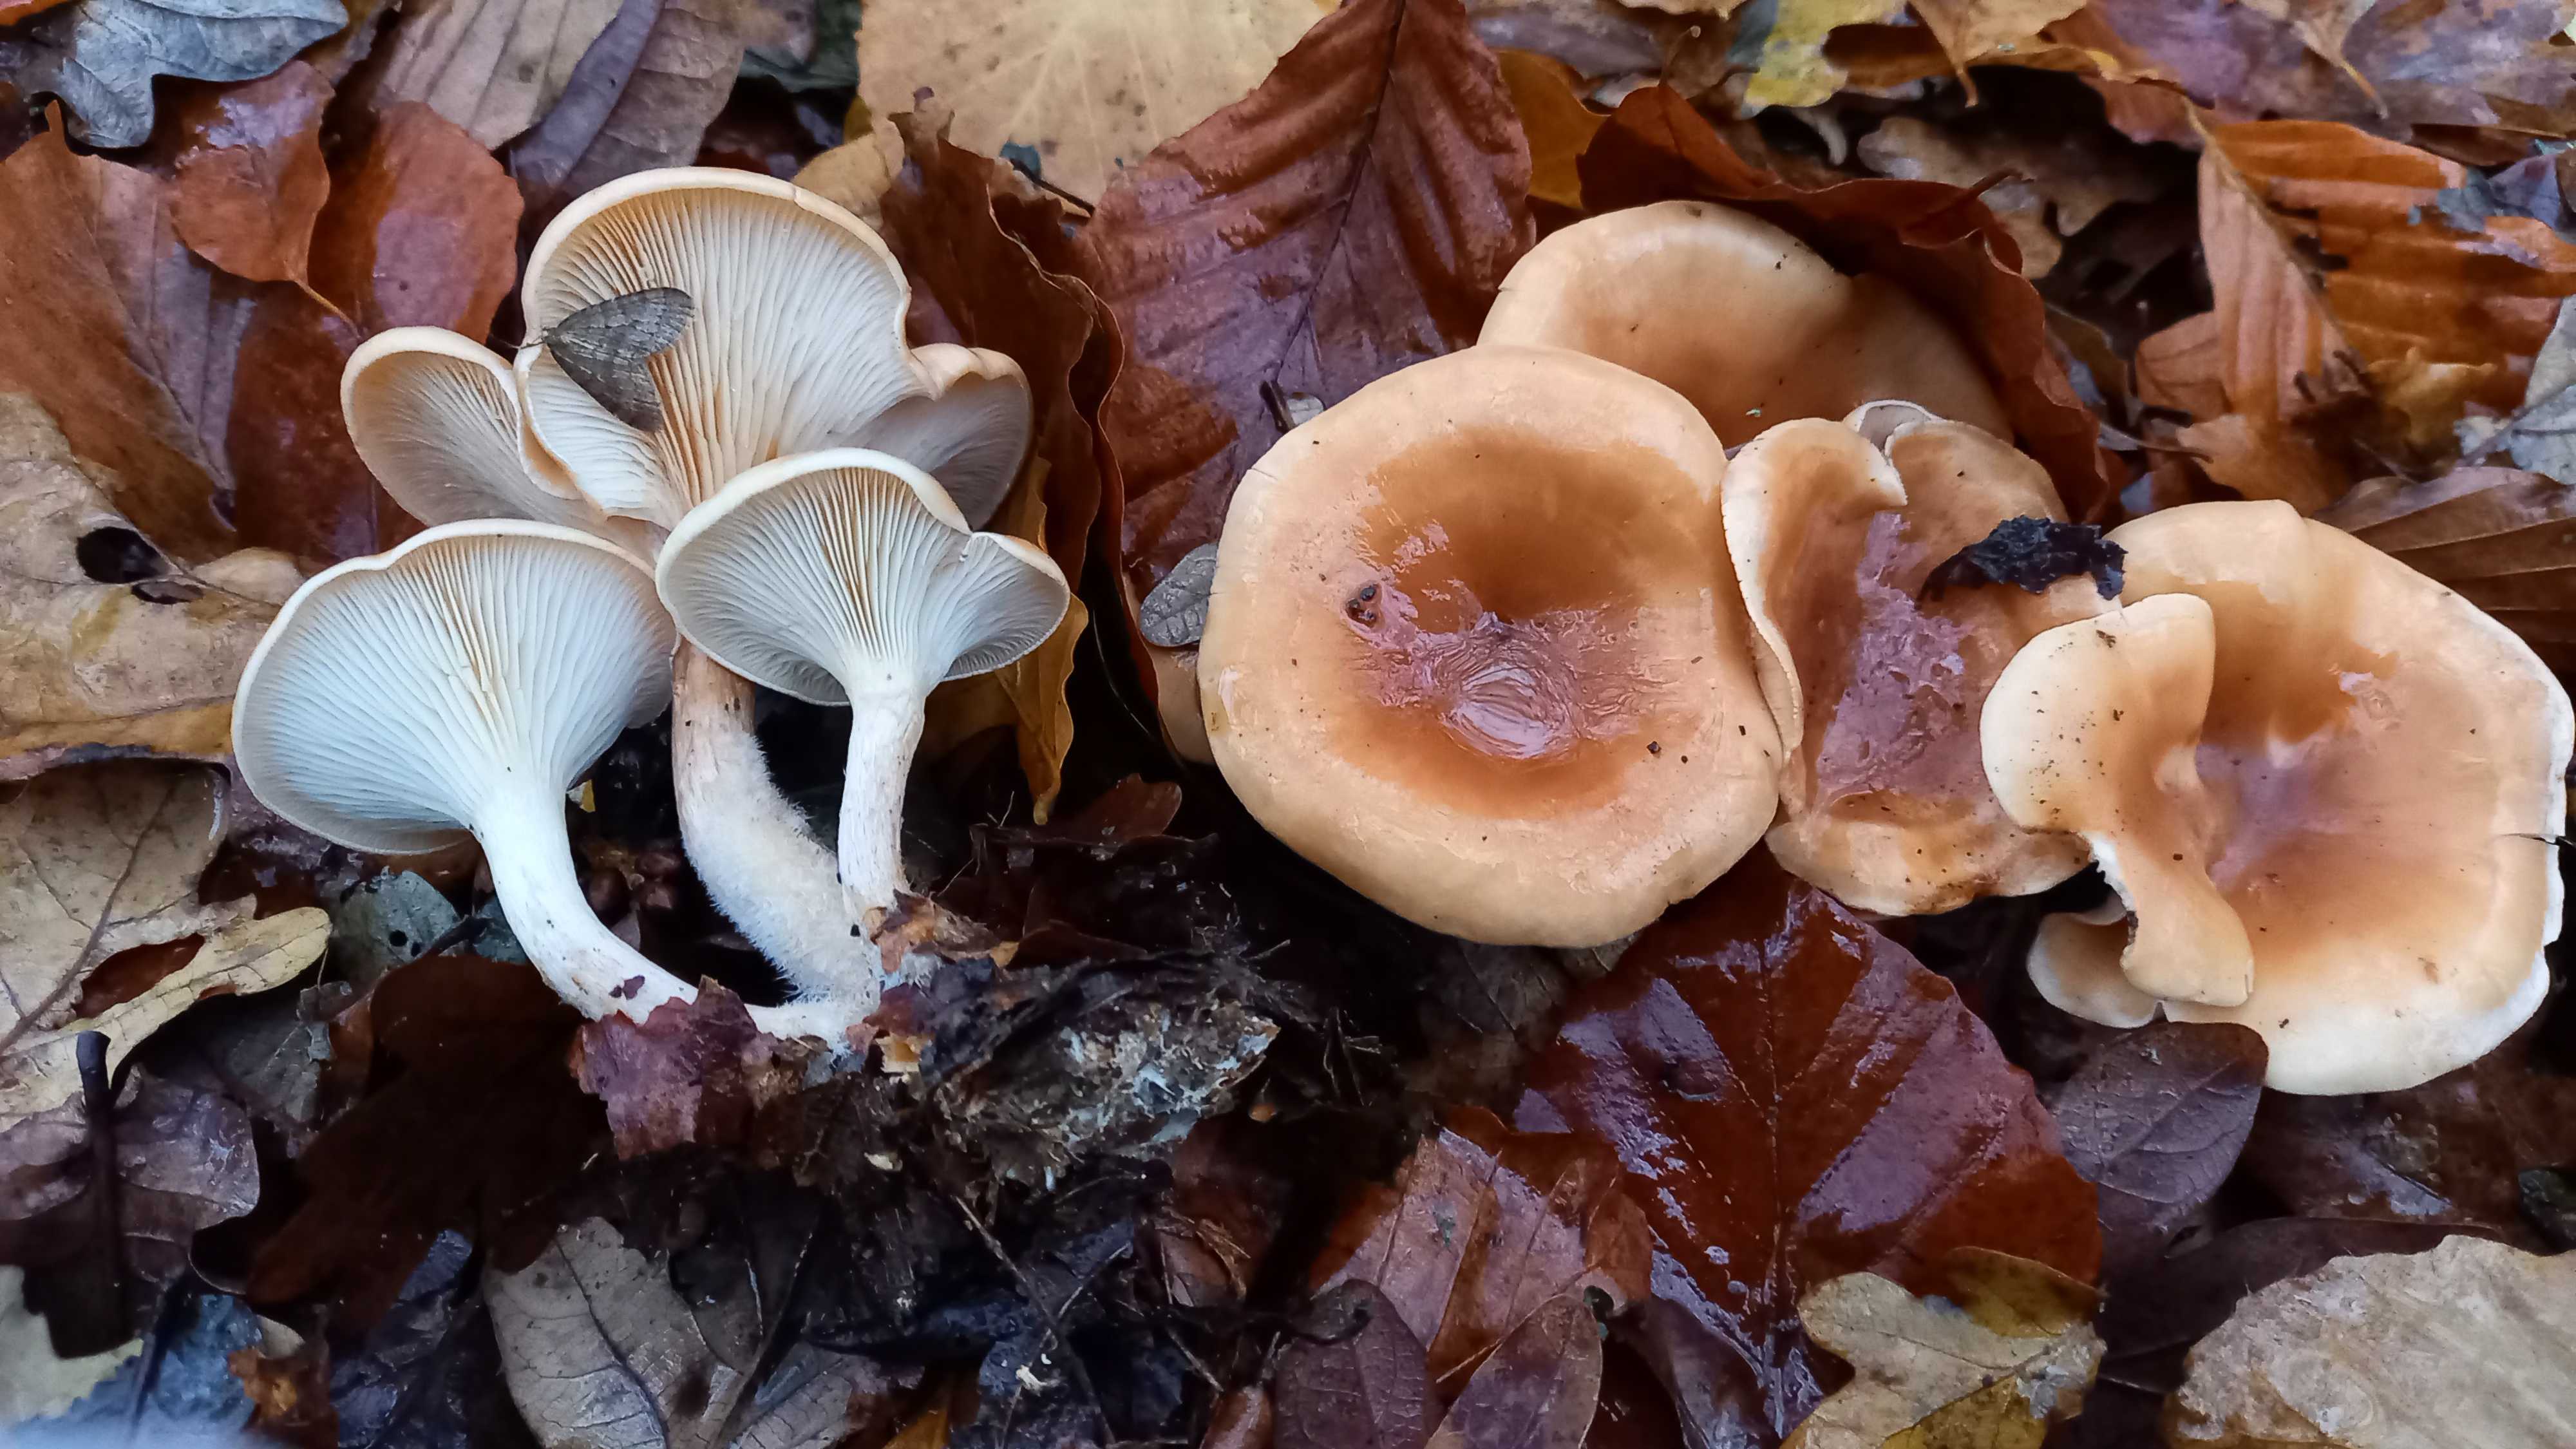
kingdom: Fungi
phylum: Basidiomycota
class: Agaricomycetes
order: Agaricales
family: Tricholomataceae
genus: Paralepista
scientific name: Paralepista flaccida
